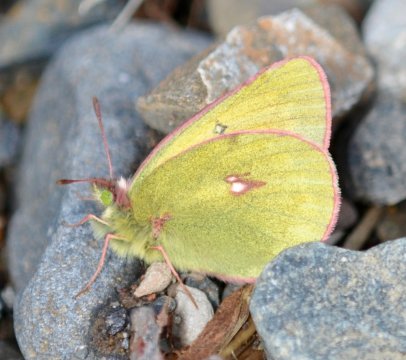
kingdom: Animalia
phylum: Arthropoda
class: Insecta
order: Lepidoptera
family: Pieridae
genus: Colias
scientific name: Colias
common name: Clouded Yellows
